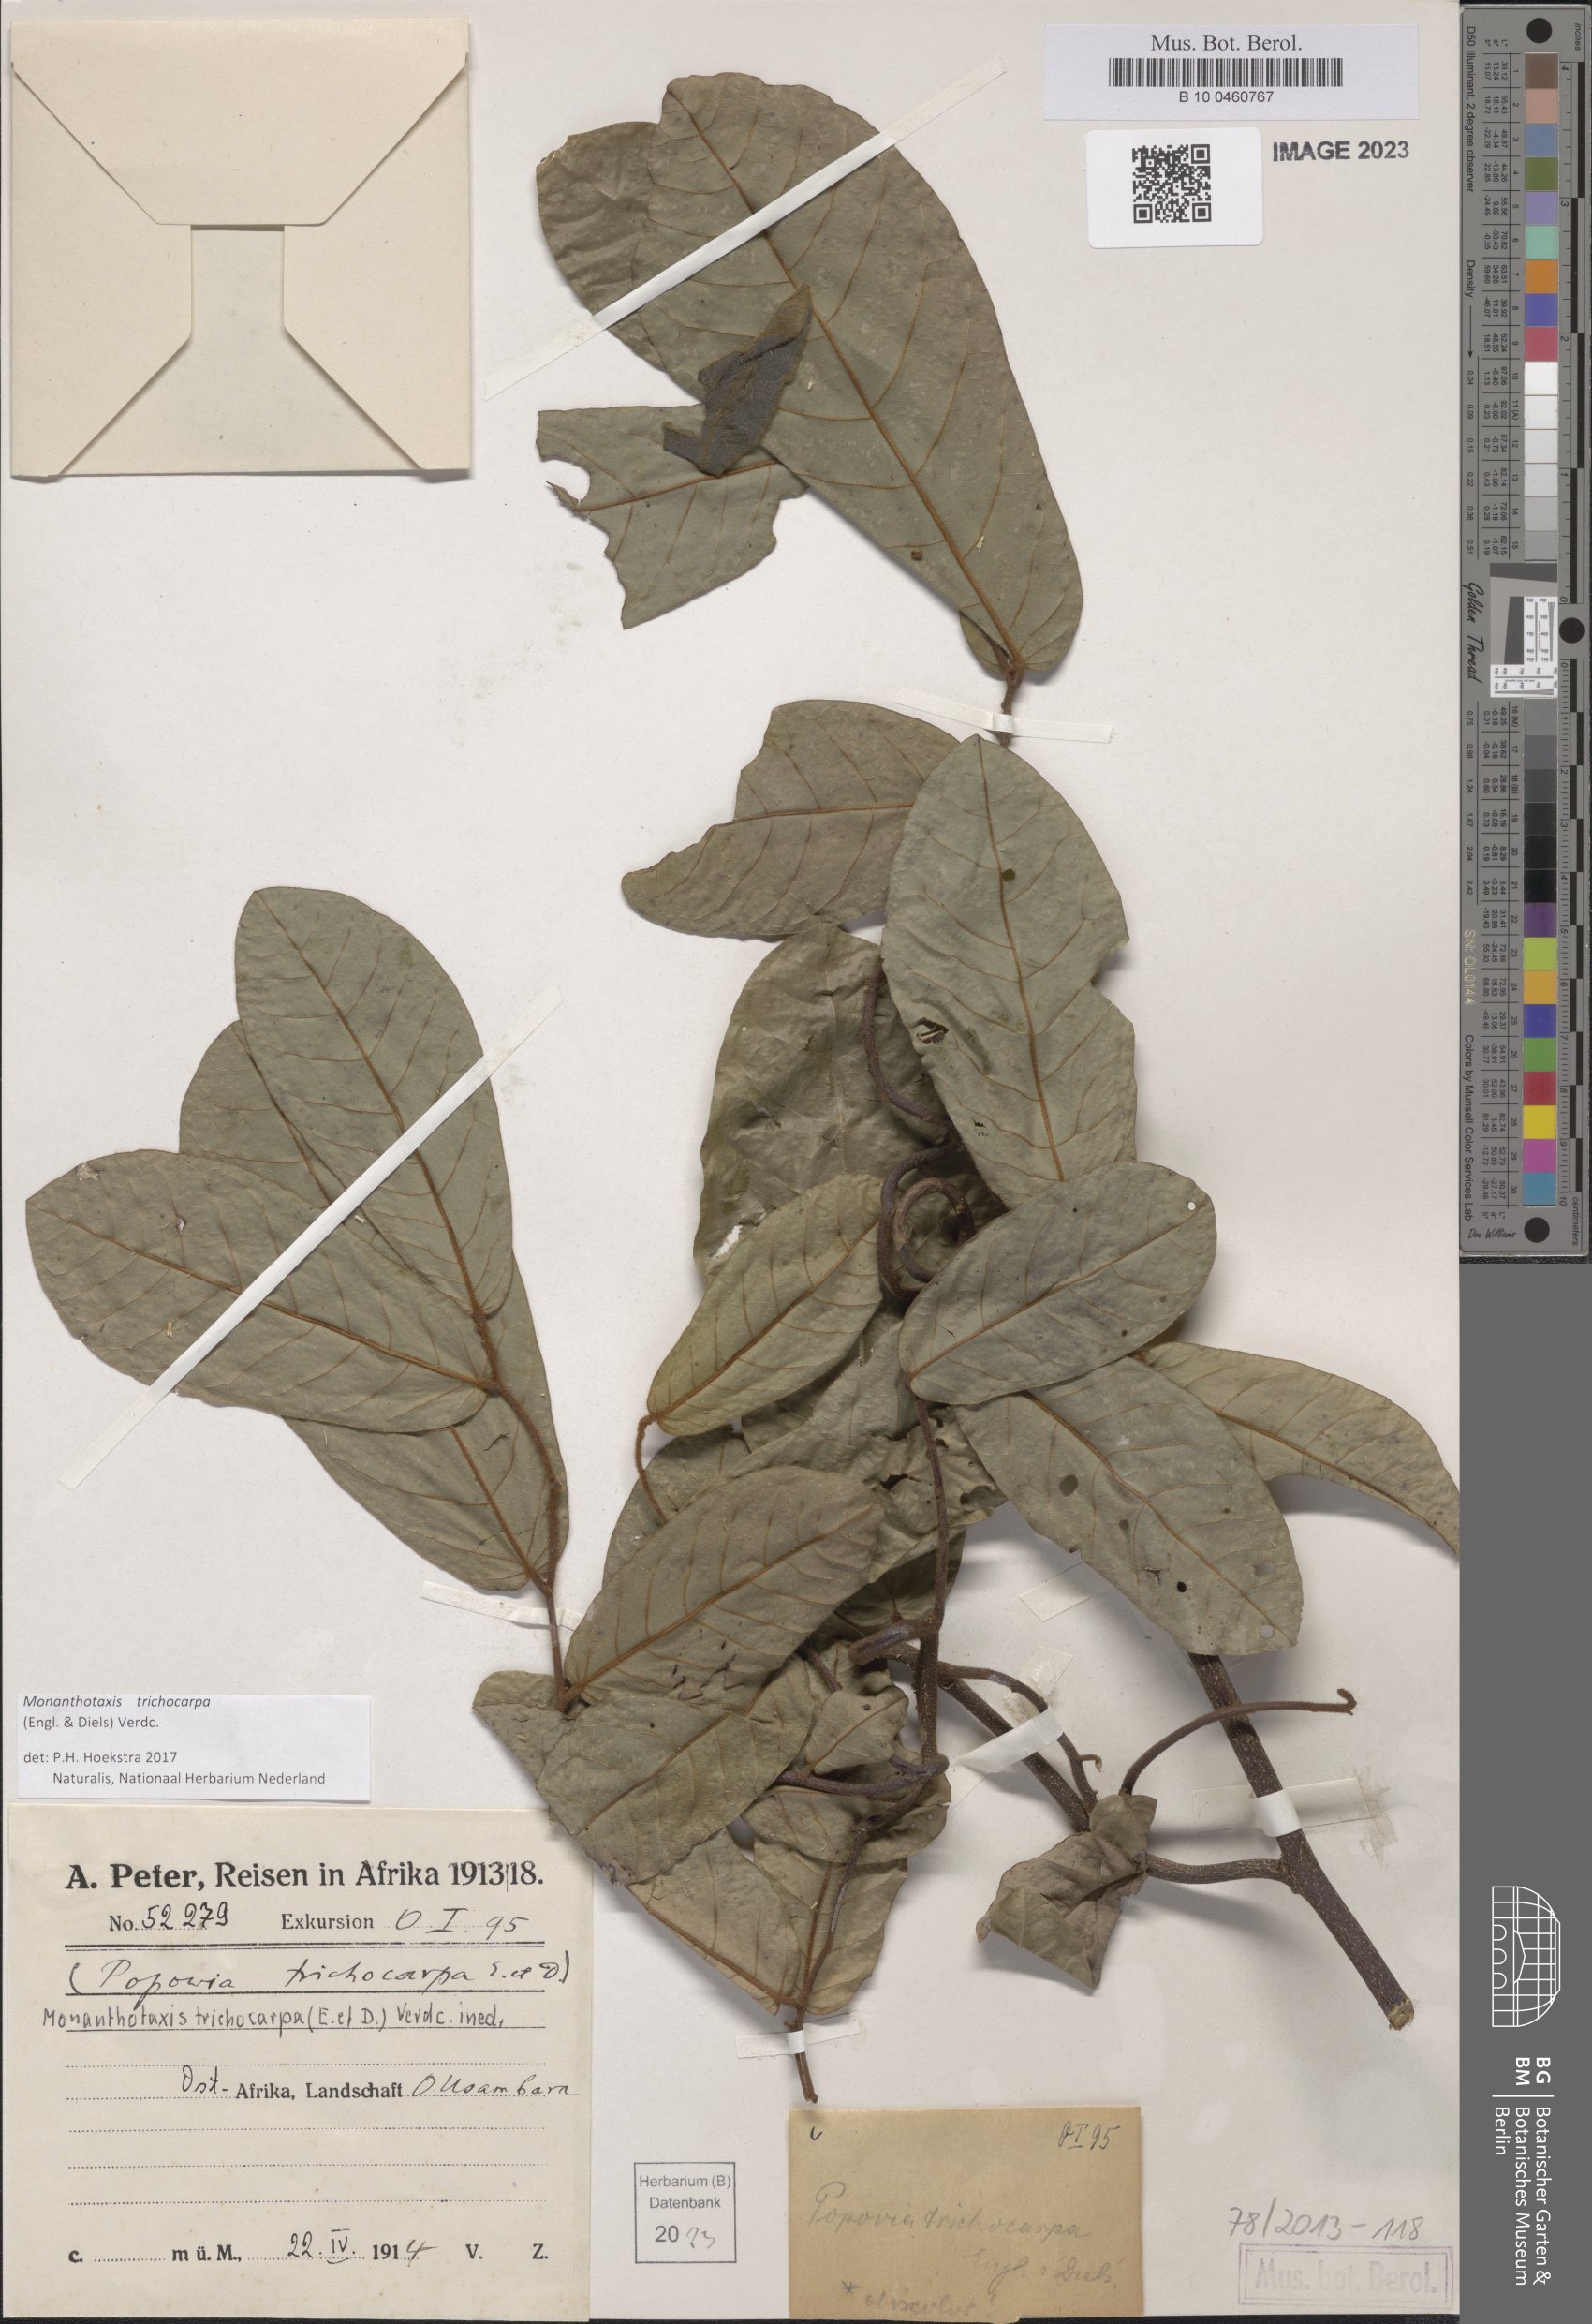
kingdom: Plantae
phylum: Tracheophyta
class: Magnoliopsida
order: Magnoliales
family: Annonaceae
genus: Monanthotaxis
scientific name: Monanthotaxis trichocarpa
